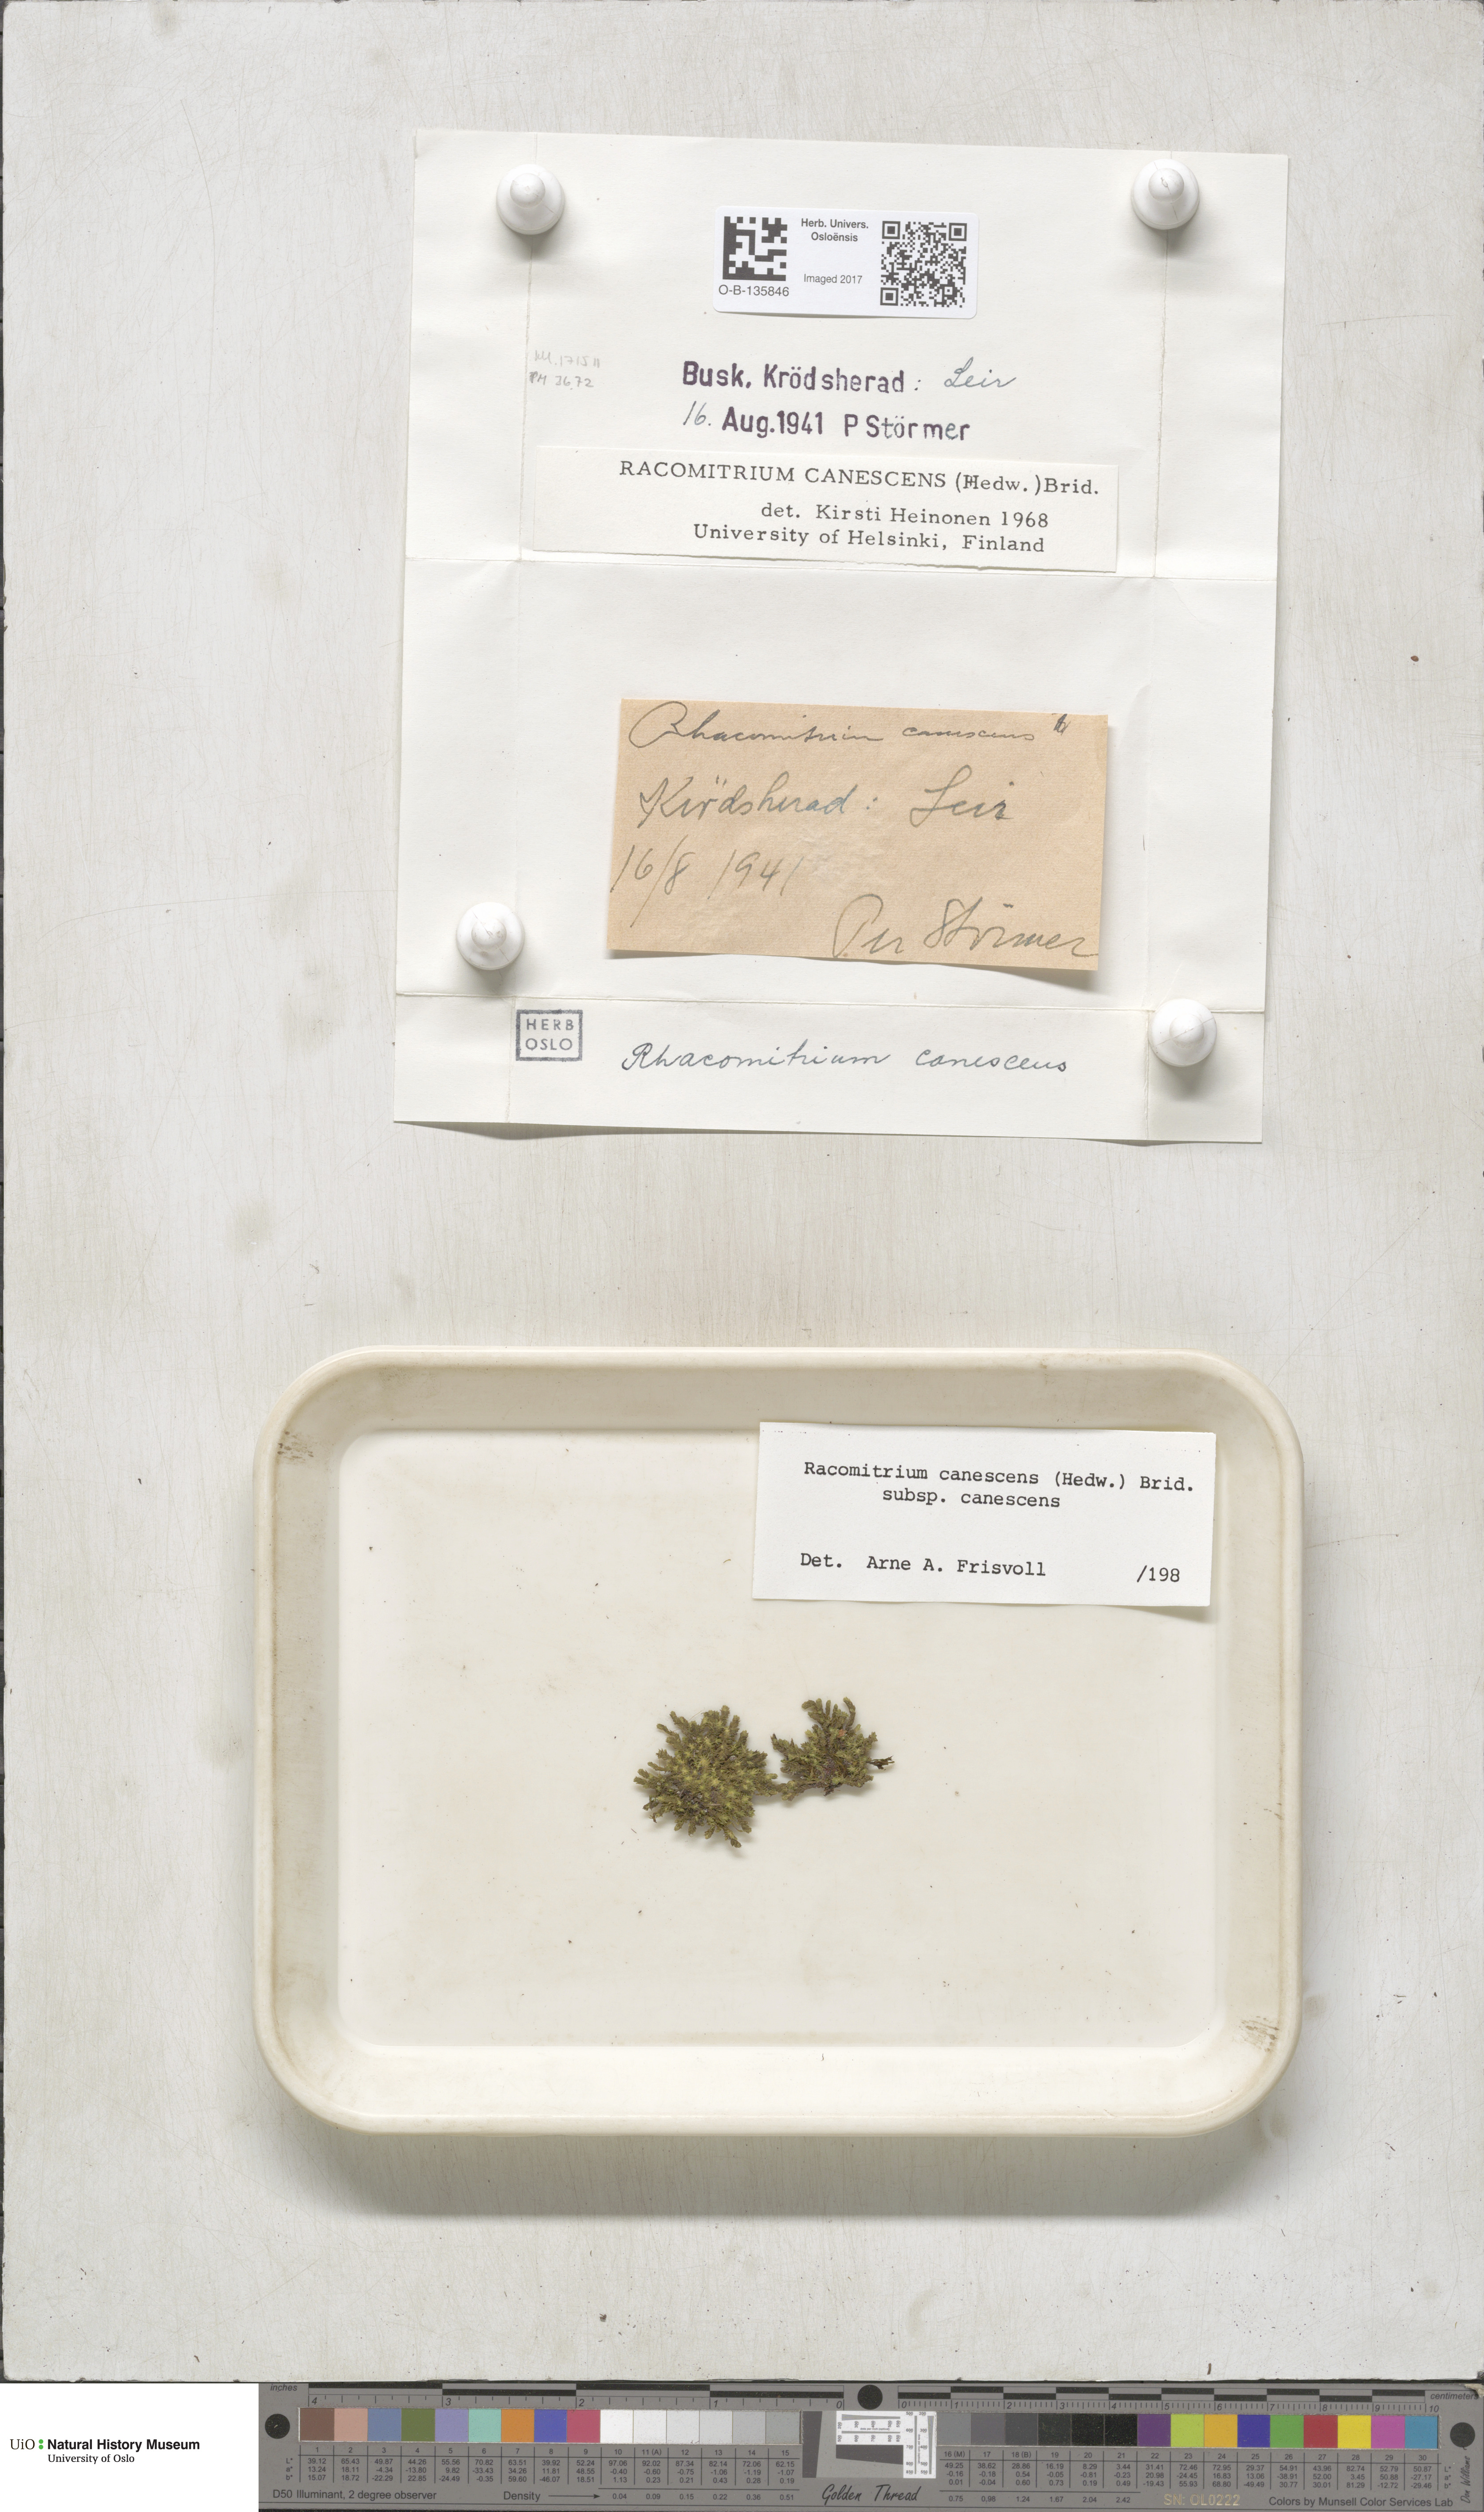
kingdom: Plantae
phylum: Bryophyta
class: Bryopsida
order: Grimmiales
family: Grimmiaceae
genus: Niphotrichum
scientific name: Niphotrichum canescens
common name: Hoary fringe-moss
